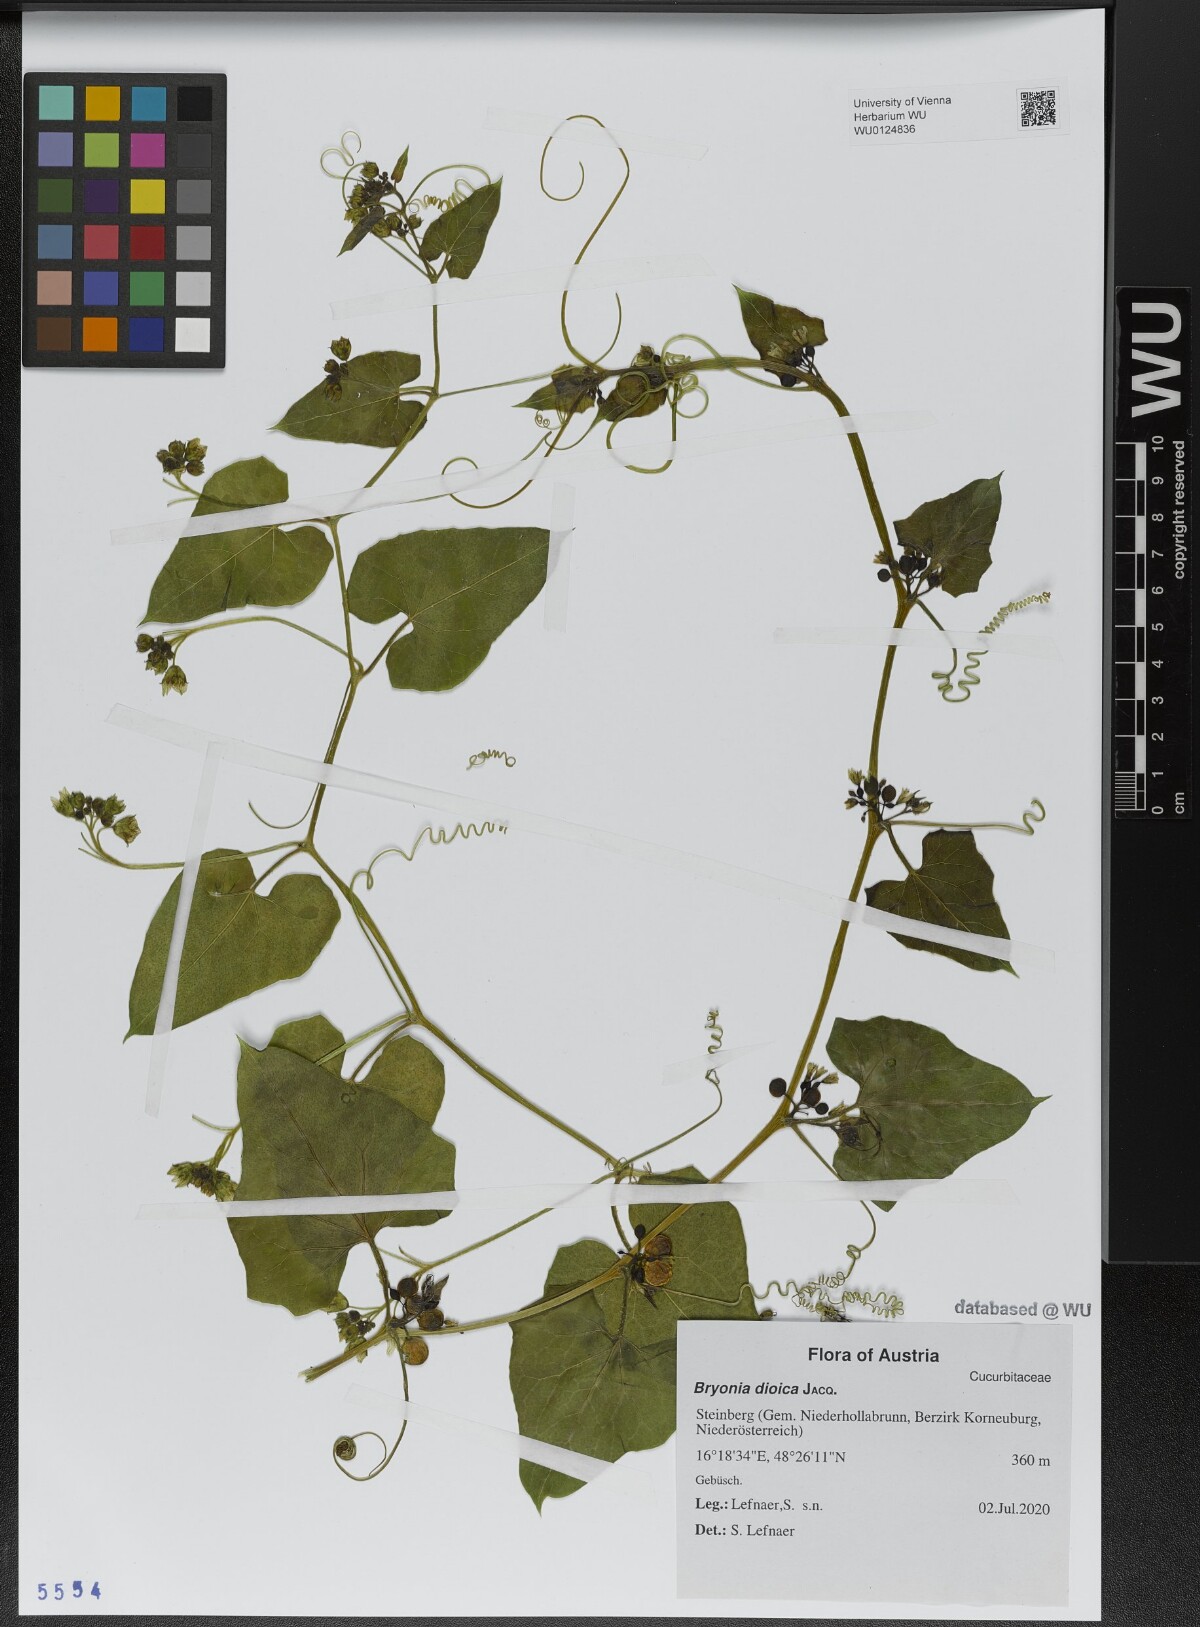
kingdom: Plantae
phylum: Tracheophyta
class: Magnoliopsida
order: Cucurbitales
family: Cucurbitaceae
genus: Bryonia
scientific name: Bryonia dioica
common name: White bryony
